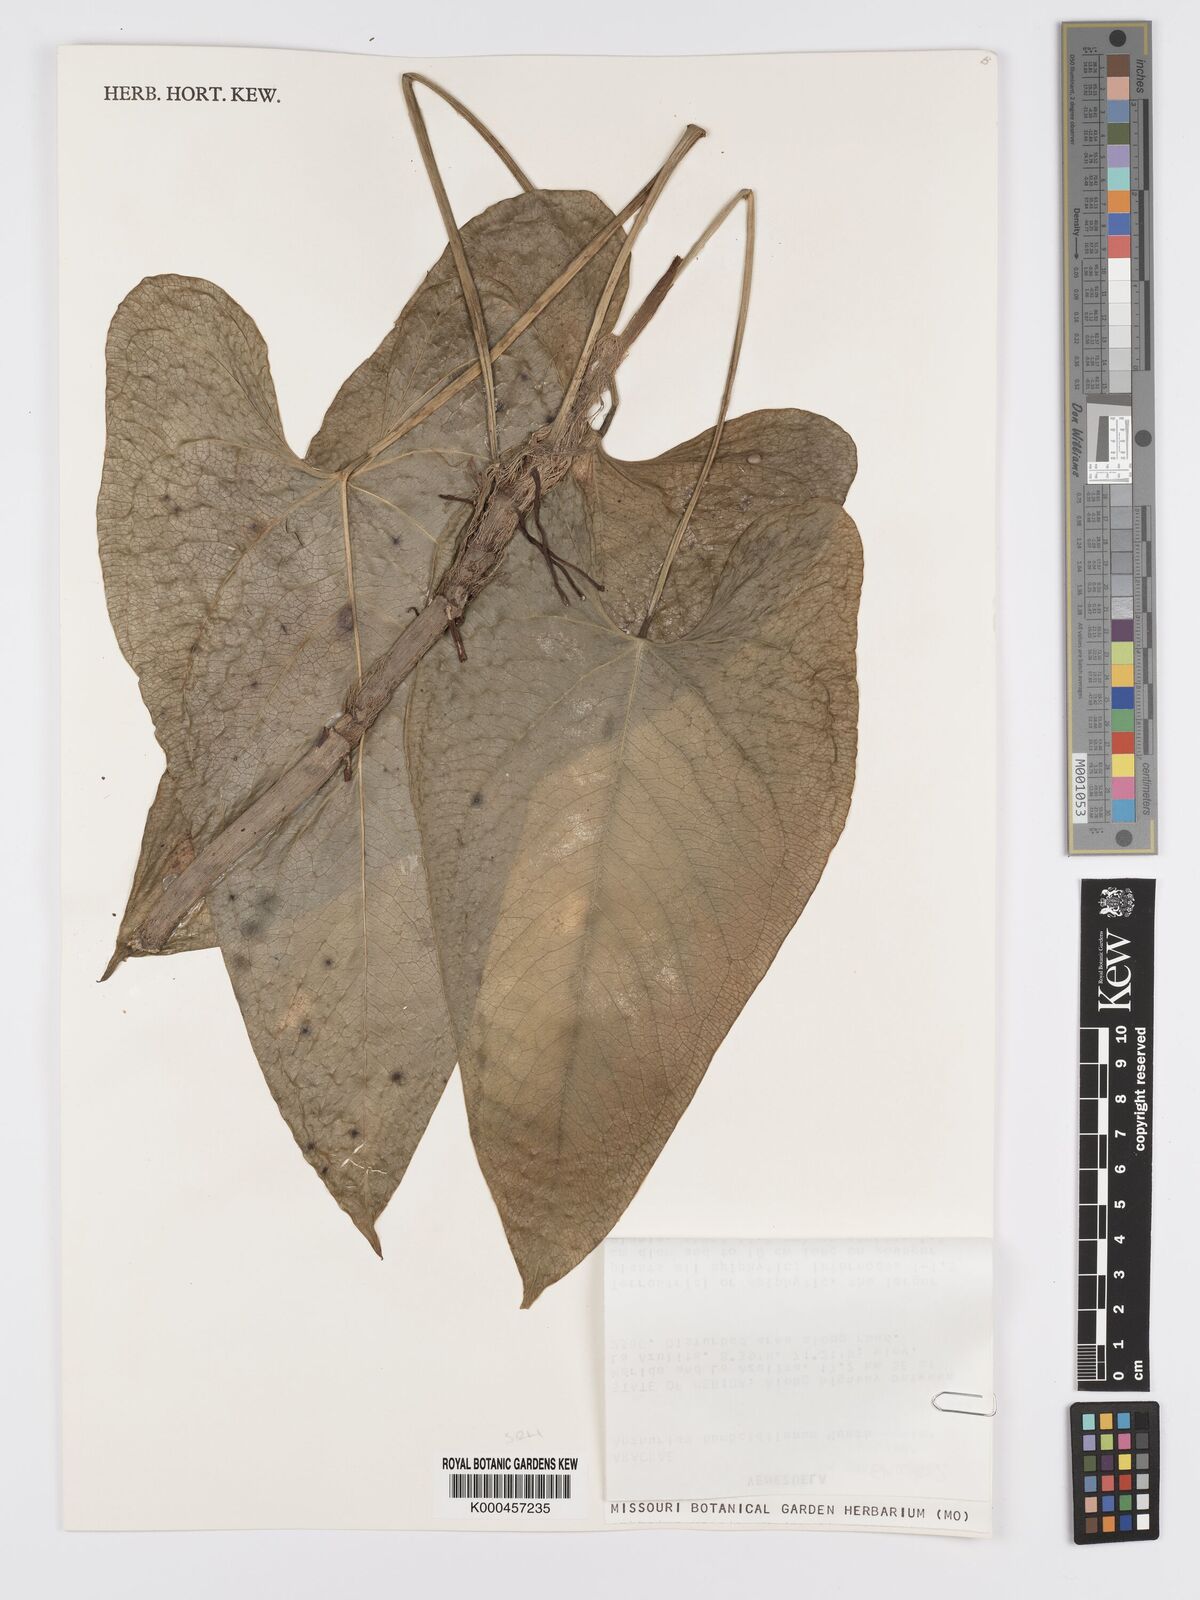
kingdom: Plantae
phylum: Tracheophyta
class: Liliopsida
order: Alismatales
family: Araceae
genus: Anthurium
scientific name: Anthurium
